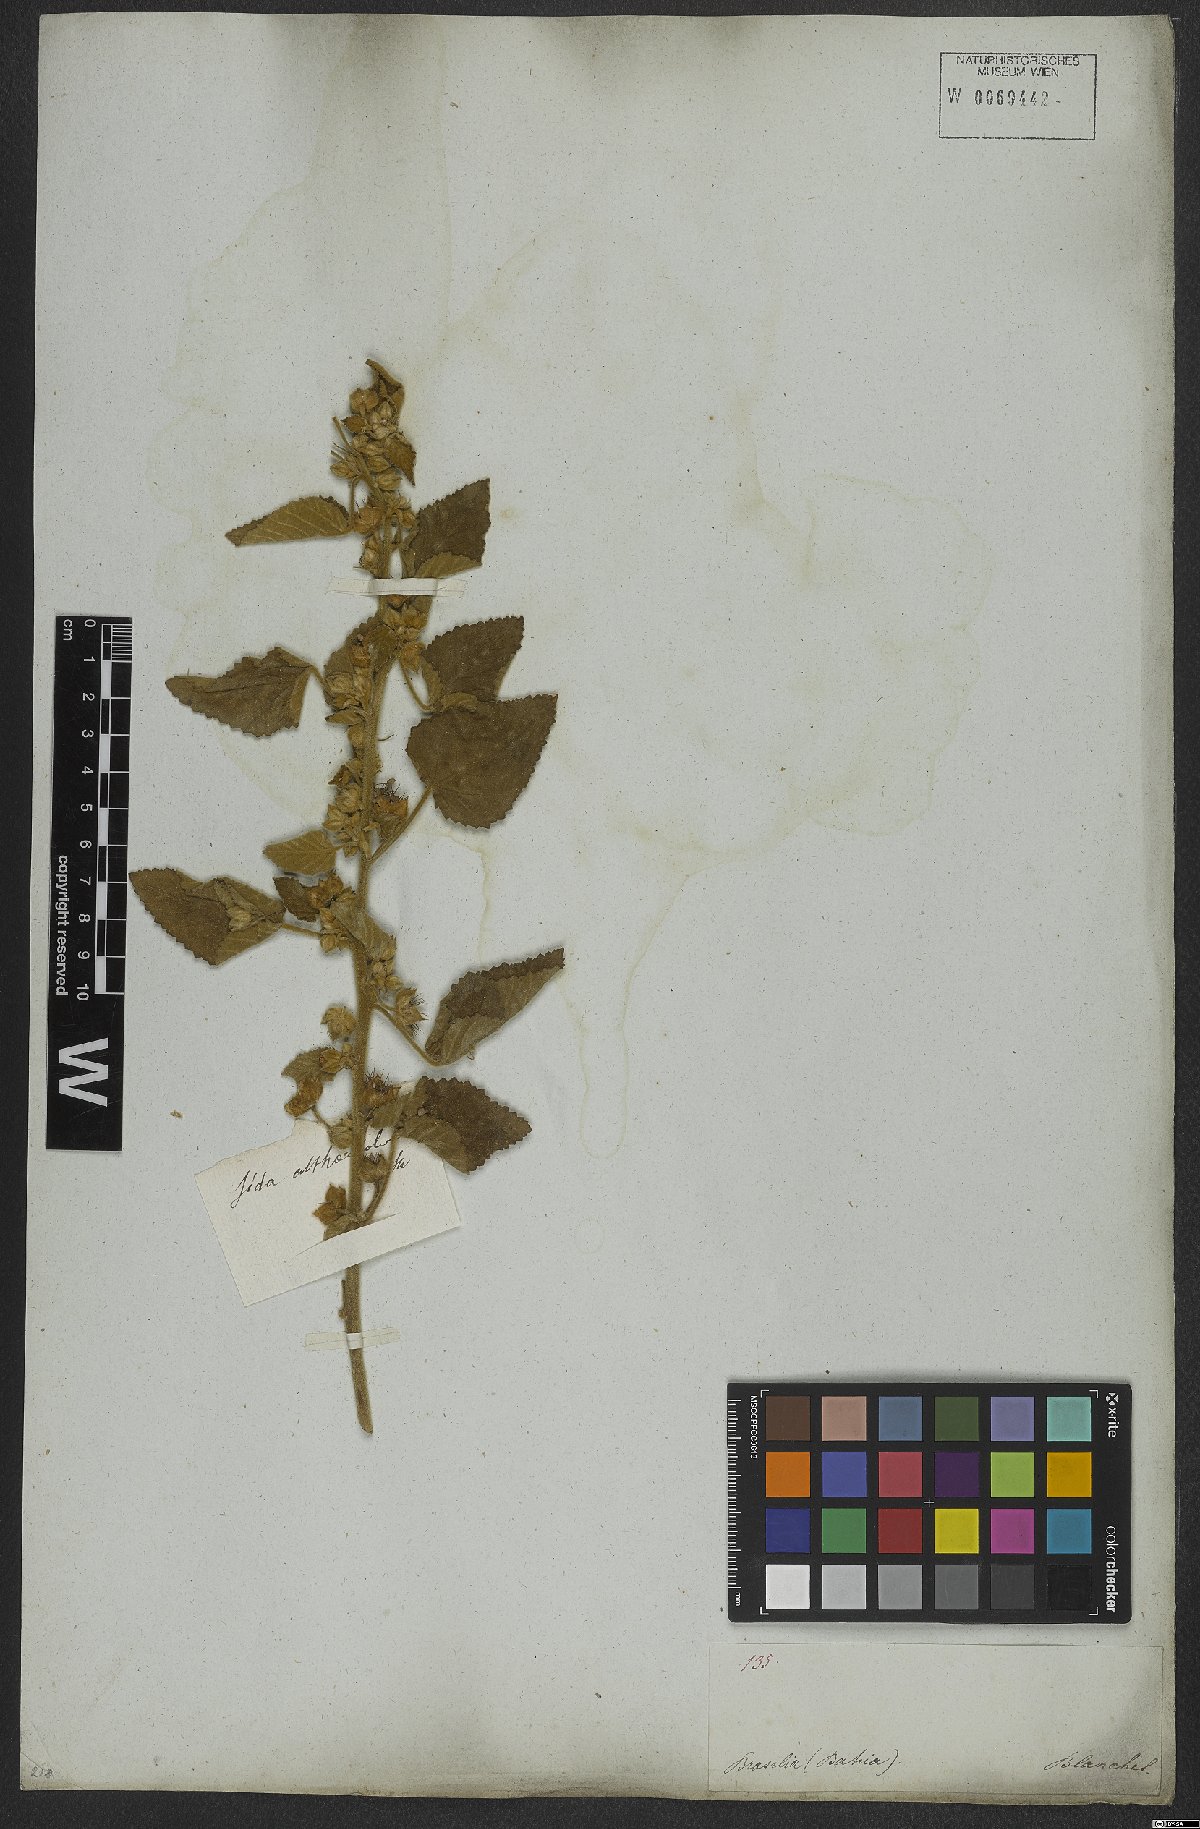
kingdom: Plantae
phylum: Tracheophyta
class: Magnoliopsida
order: Malvales
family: Malvaceae
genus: Sida
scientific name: Sida cordifolia
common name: Ilima
